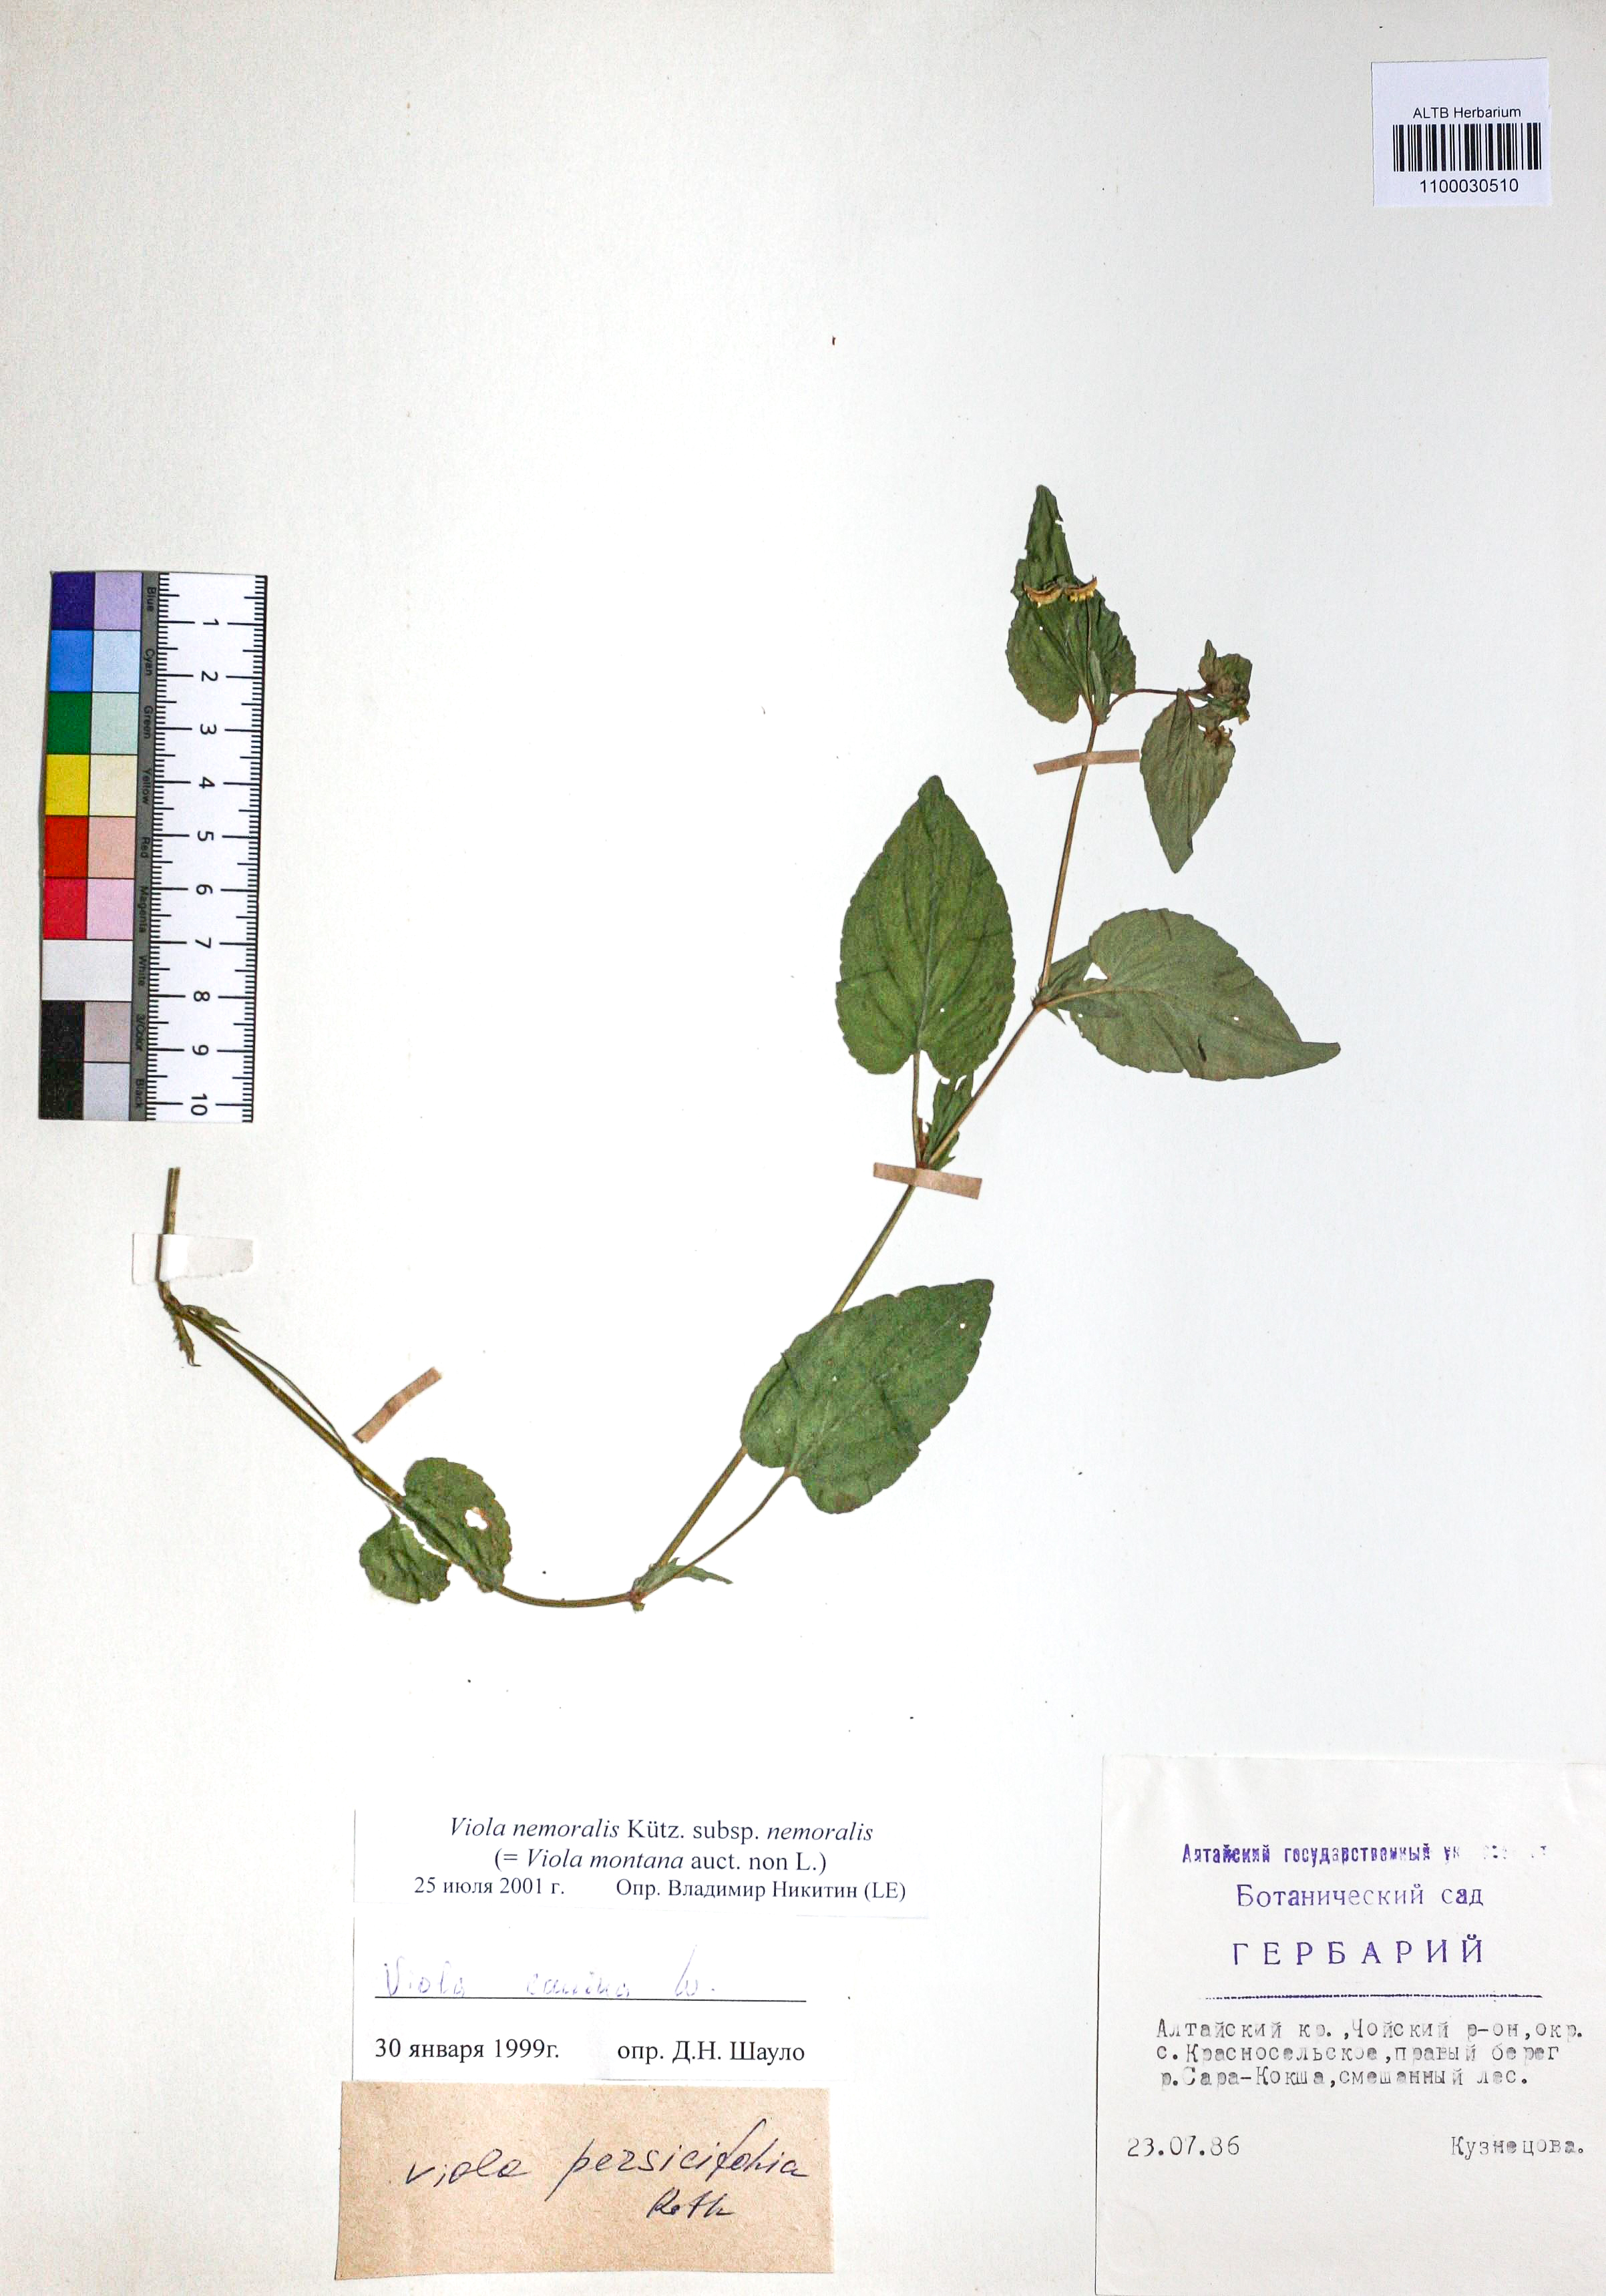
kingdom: Plantae
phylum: Tracheophyta
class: Magnoliopsida
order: Malpighiales
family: Violaceae
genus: Viola
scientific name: Viola ruppii
